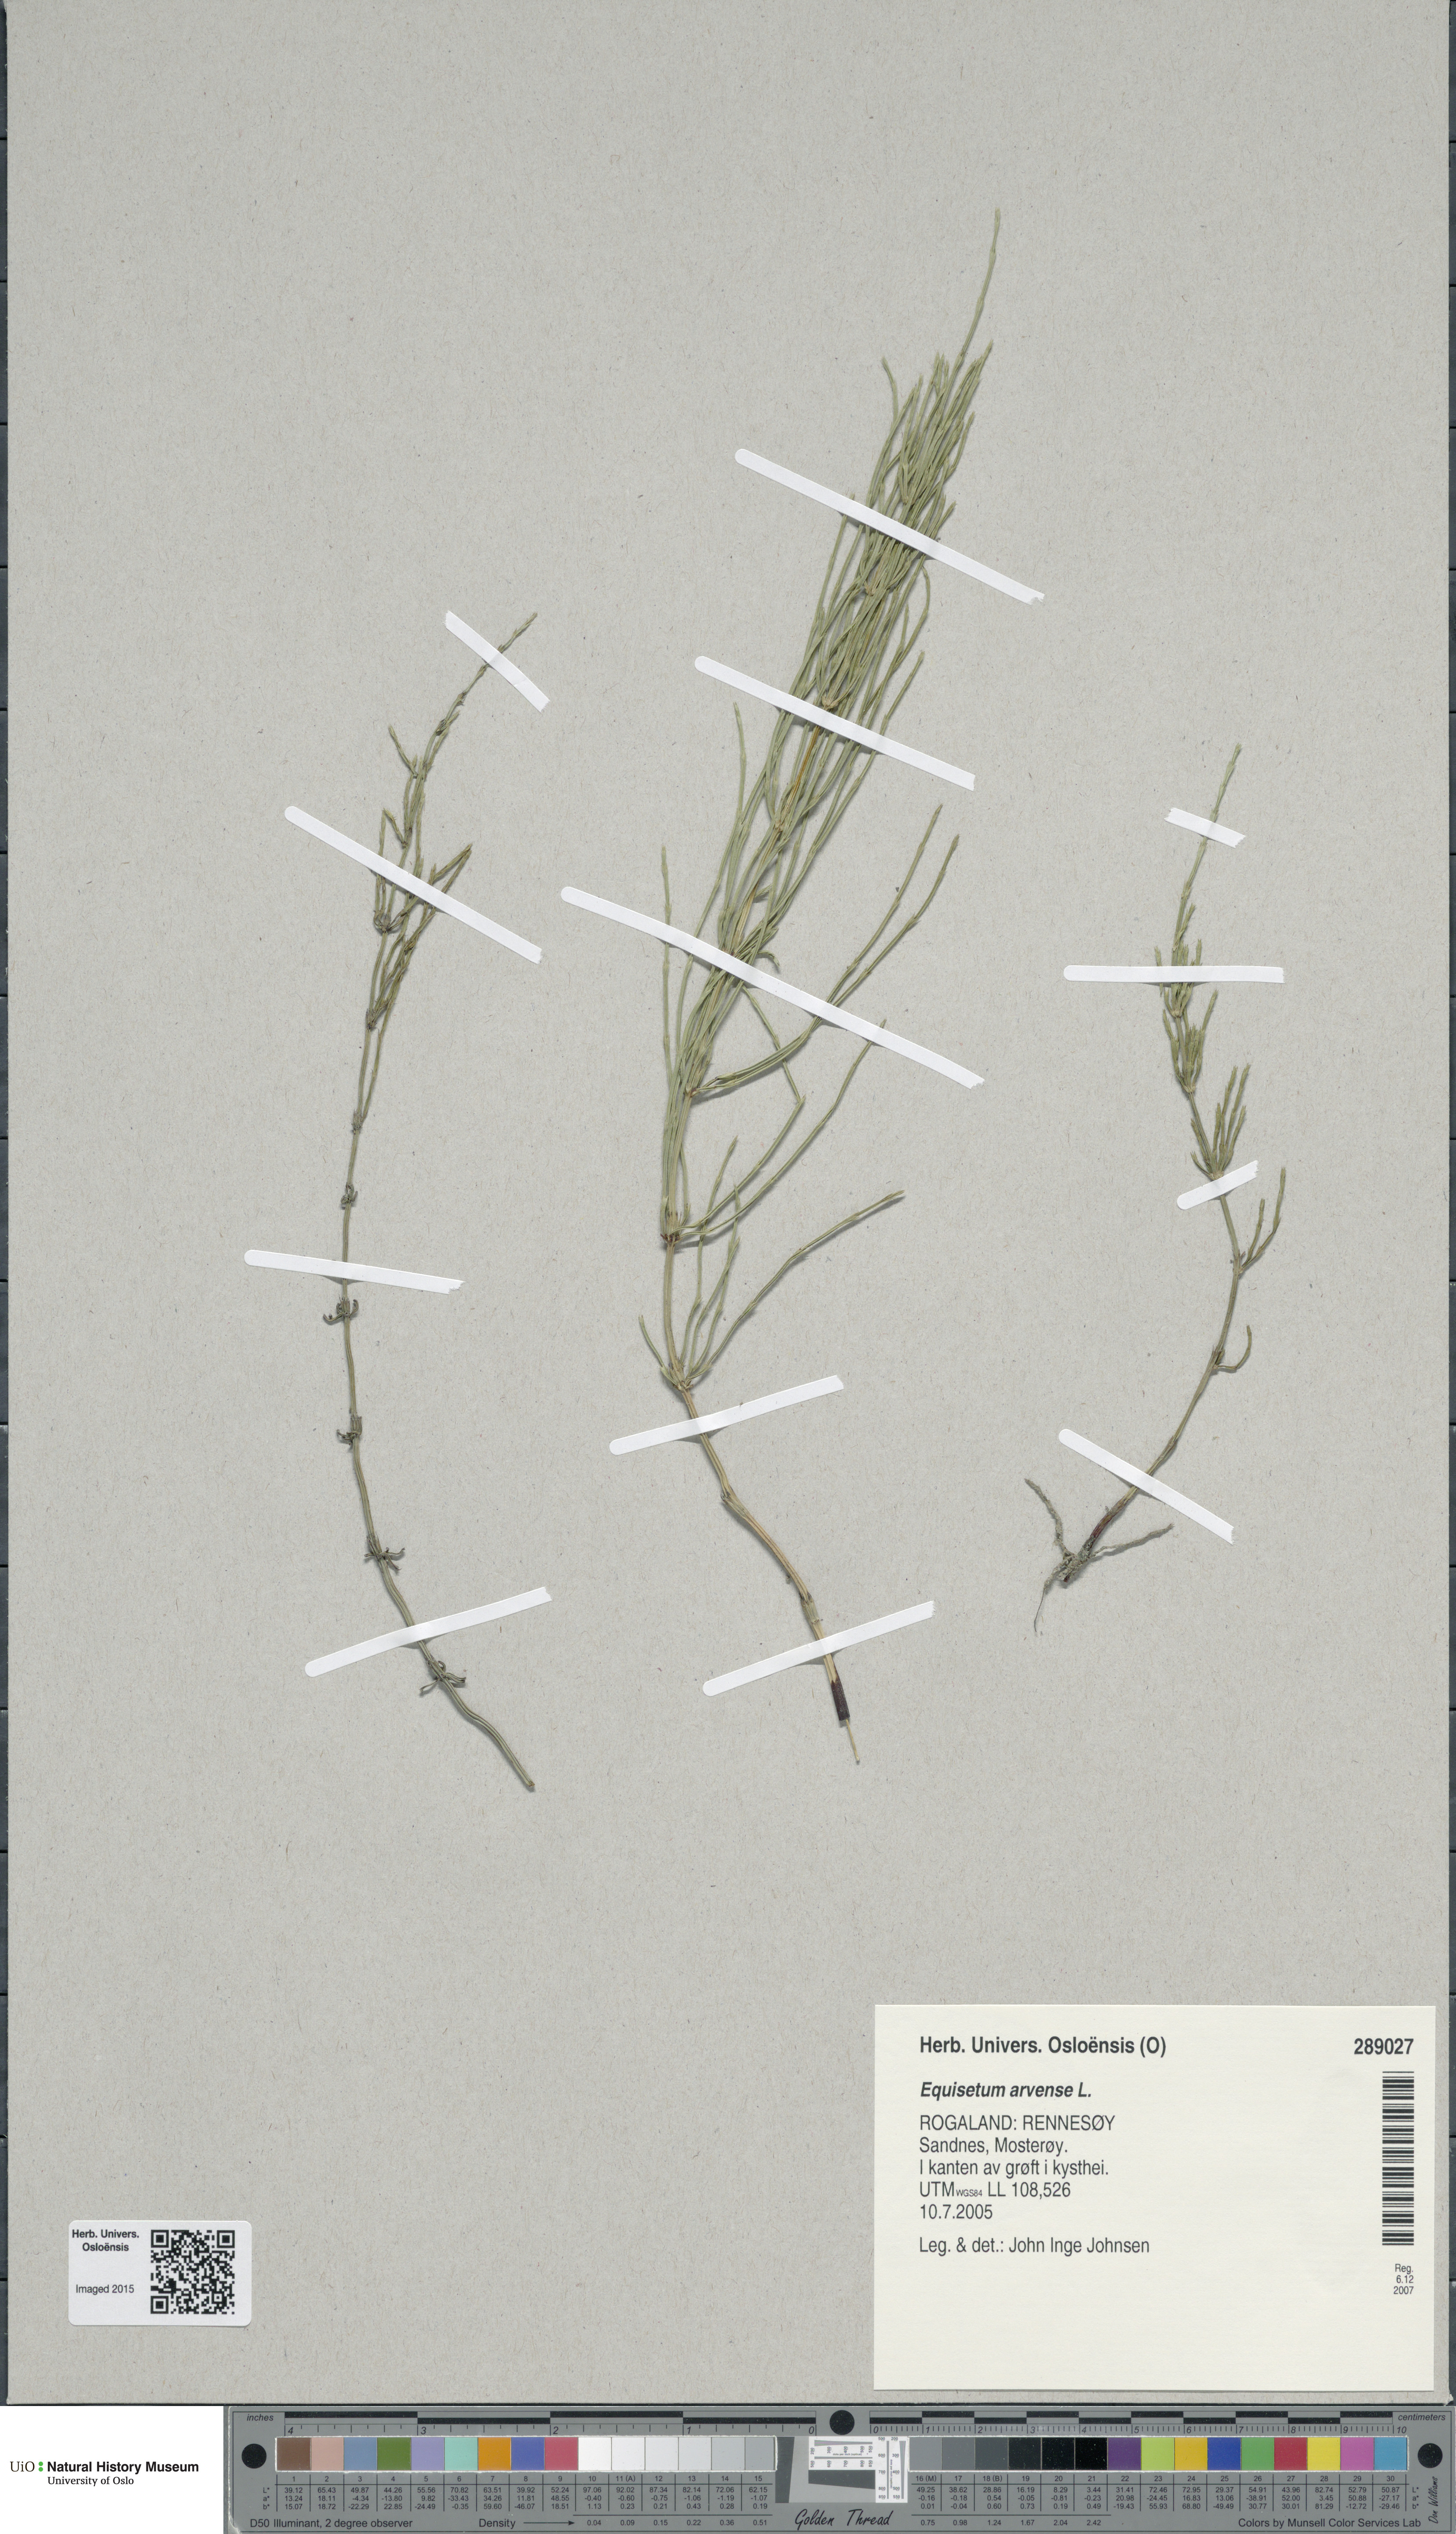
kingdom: Plantae
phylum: Tracheophyta
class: Polypodiopsida
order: Equisetales
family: Equisetaceae
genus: Equisetum
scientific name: Equisetum arvense
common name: Field horsetail
